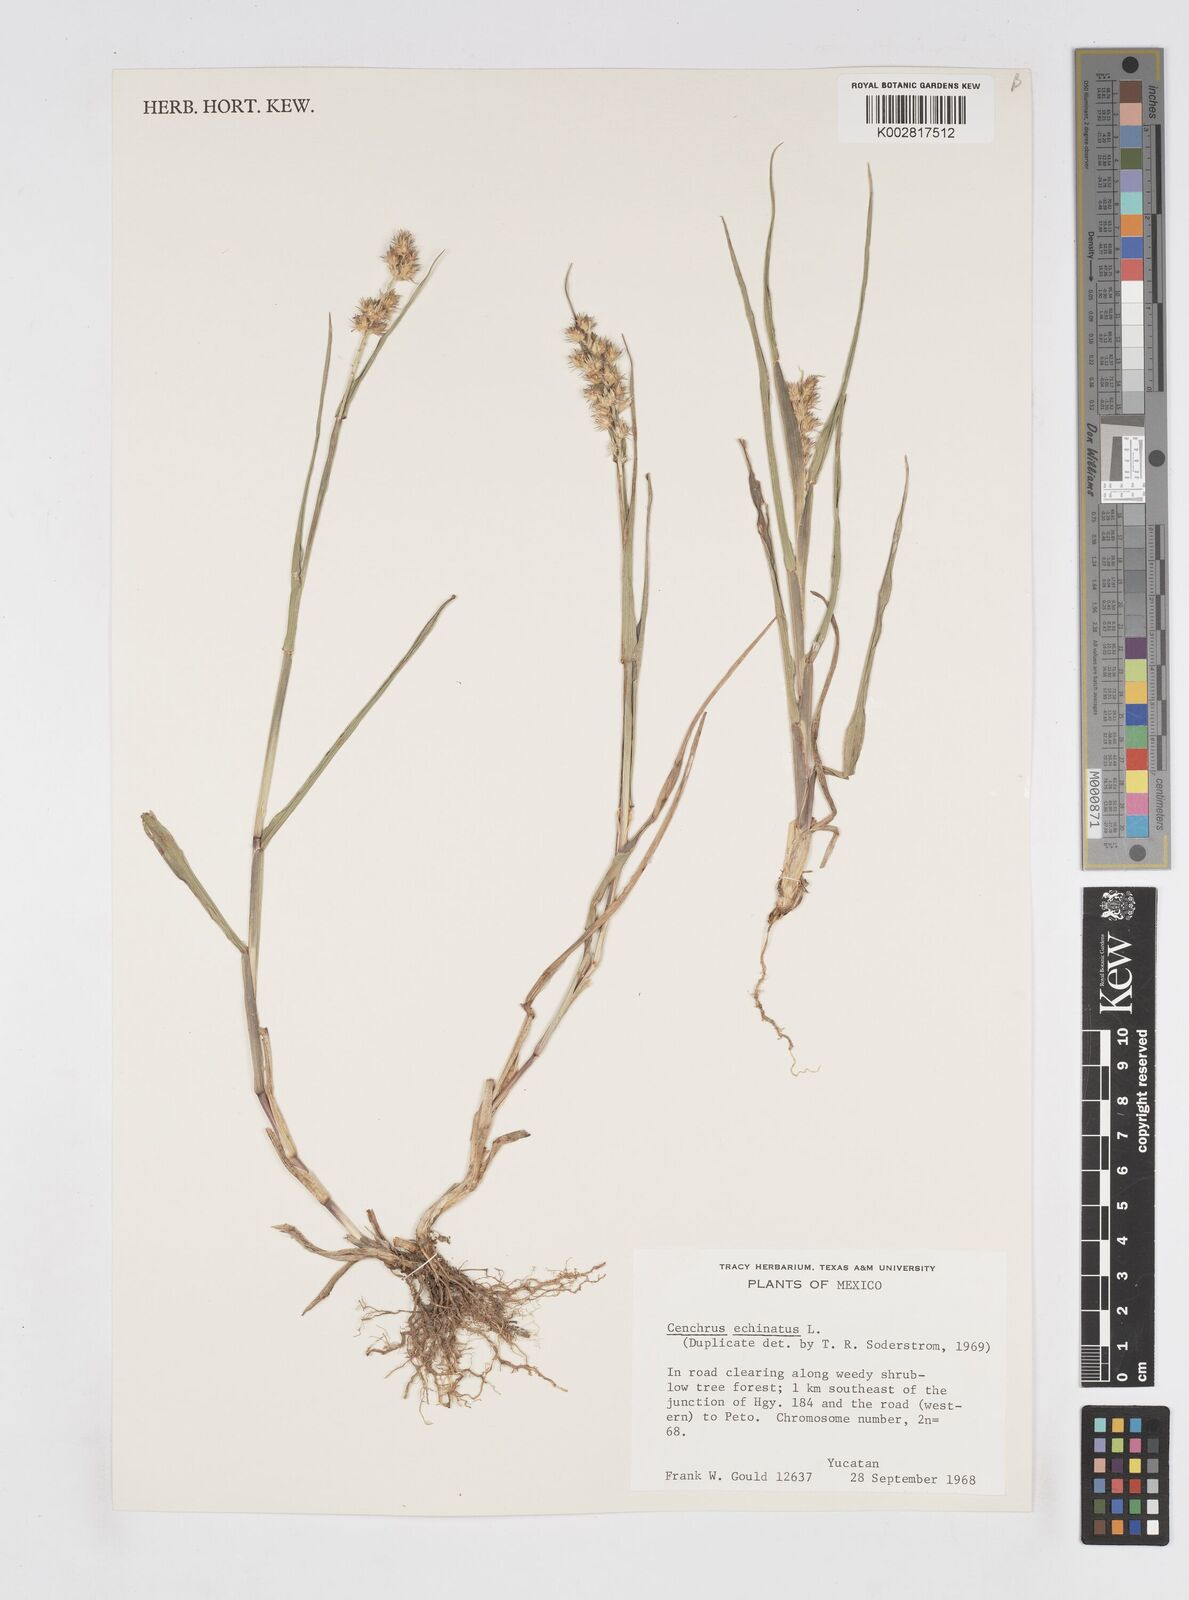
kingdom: Plantae
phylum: Tracheophyta
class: Liliopsida
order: Poales
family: Poaceae
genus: Cenchrus
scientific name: Cenchrus
